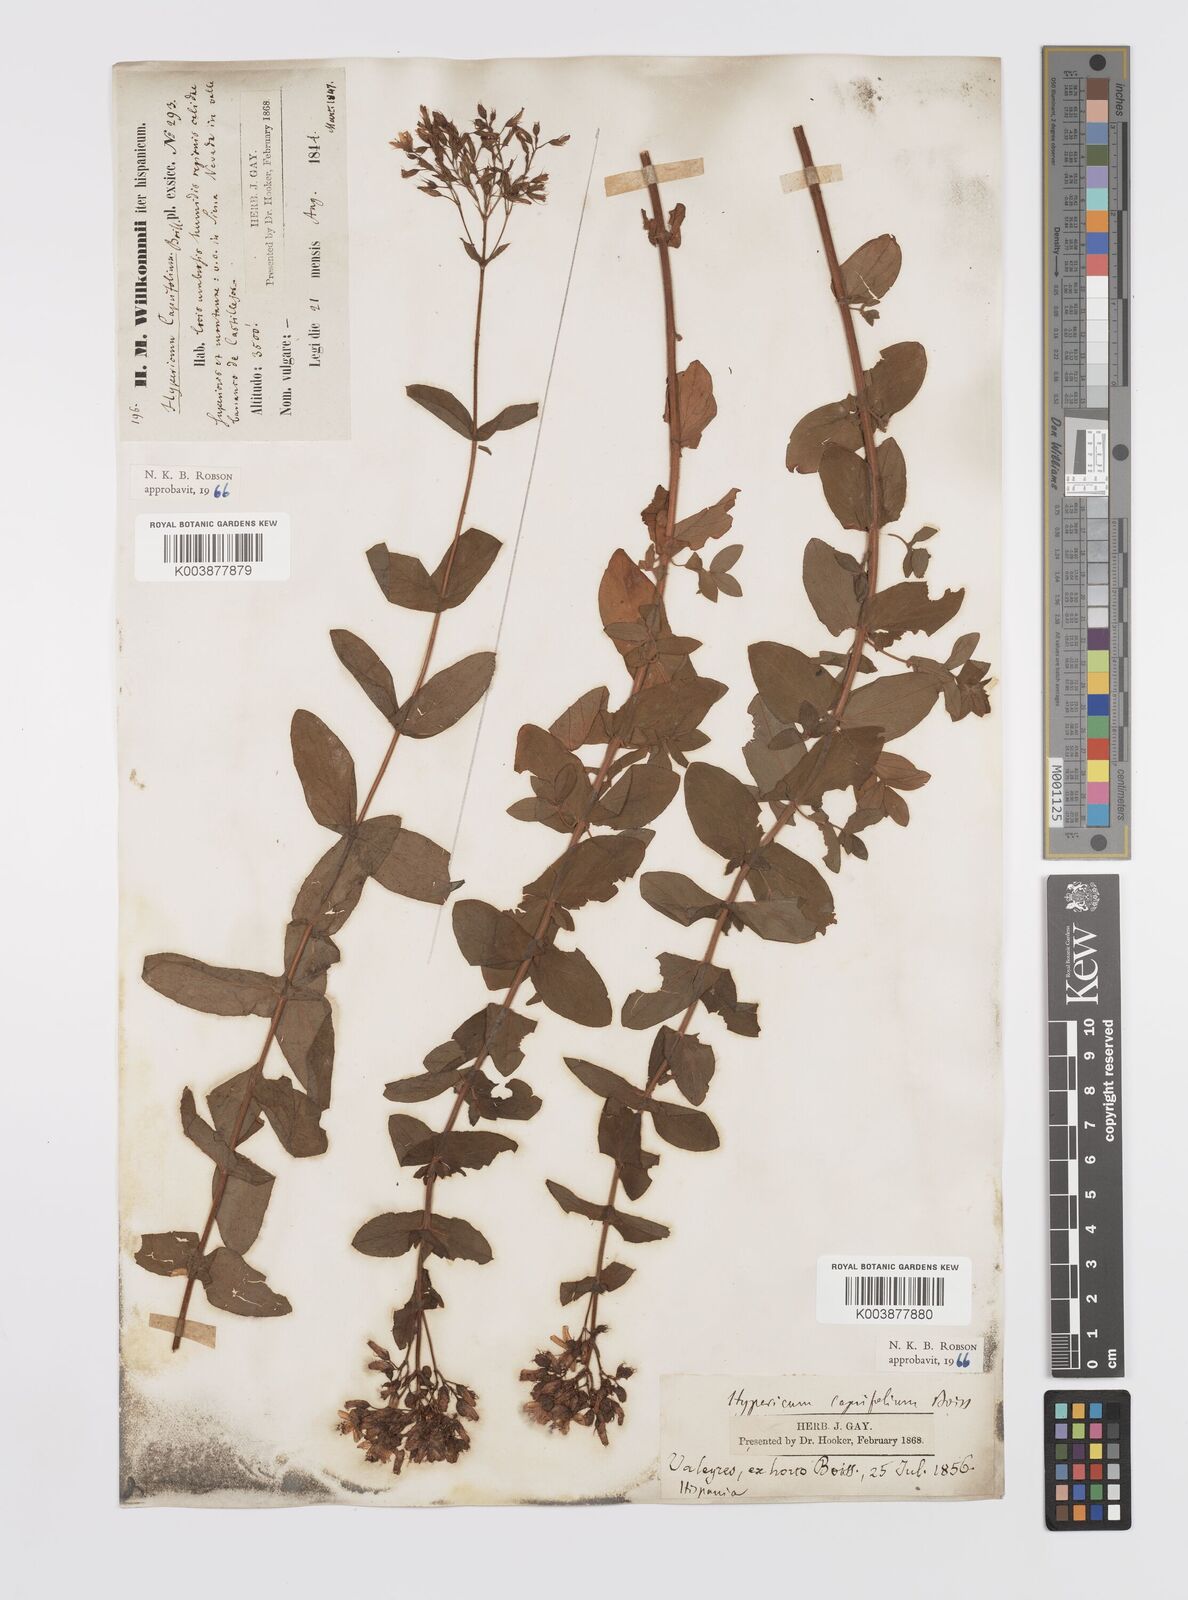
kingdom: Plantae
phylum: Tracheophyta
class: Magnoliopsida
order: Malpighiales
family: Hypericaceae
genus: Hypericum
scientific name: Hypericum caprifolium
